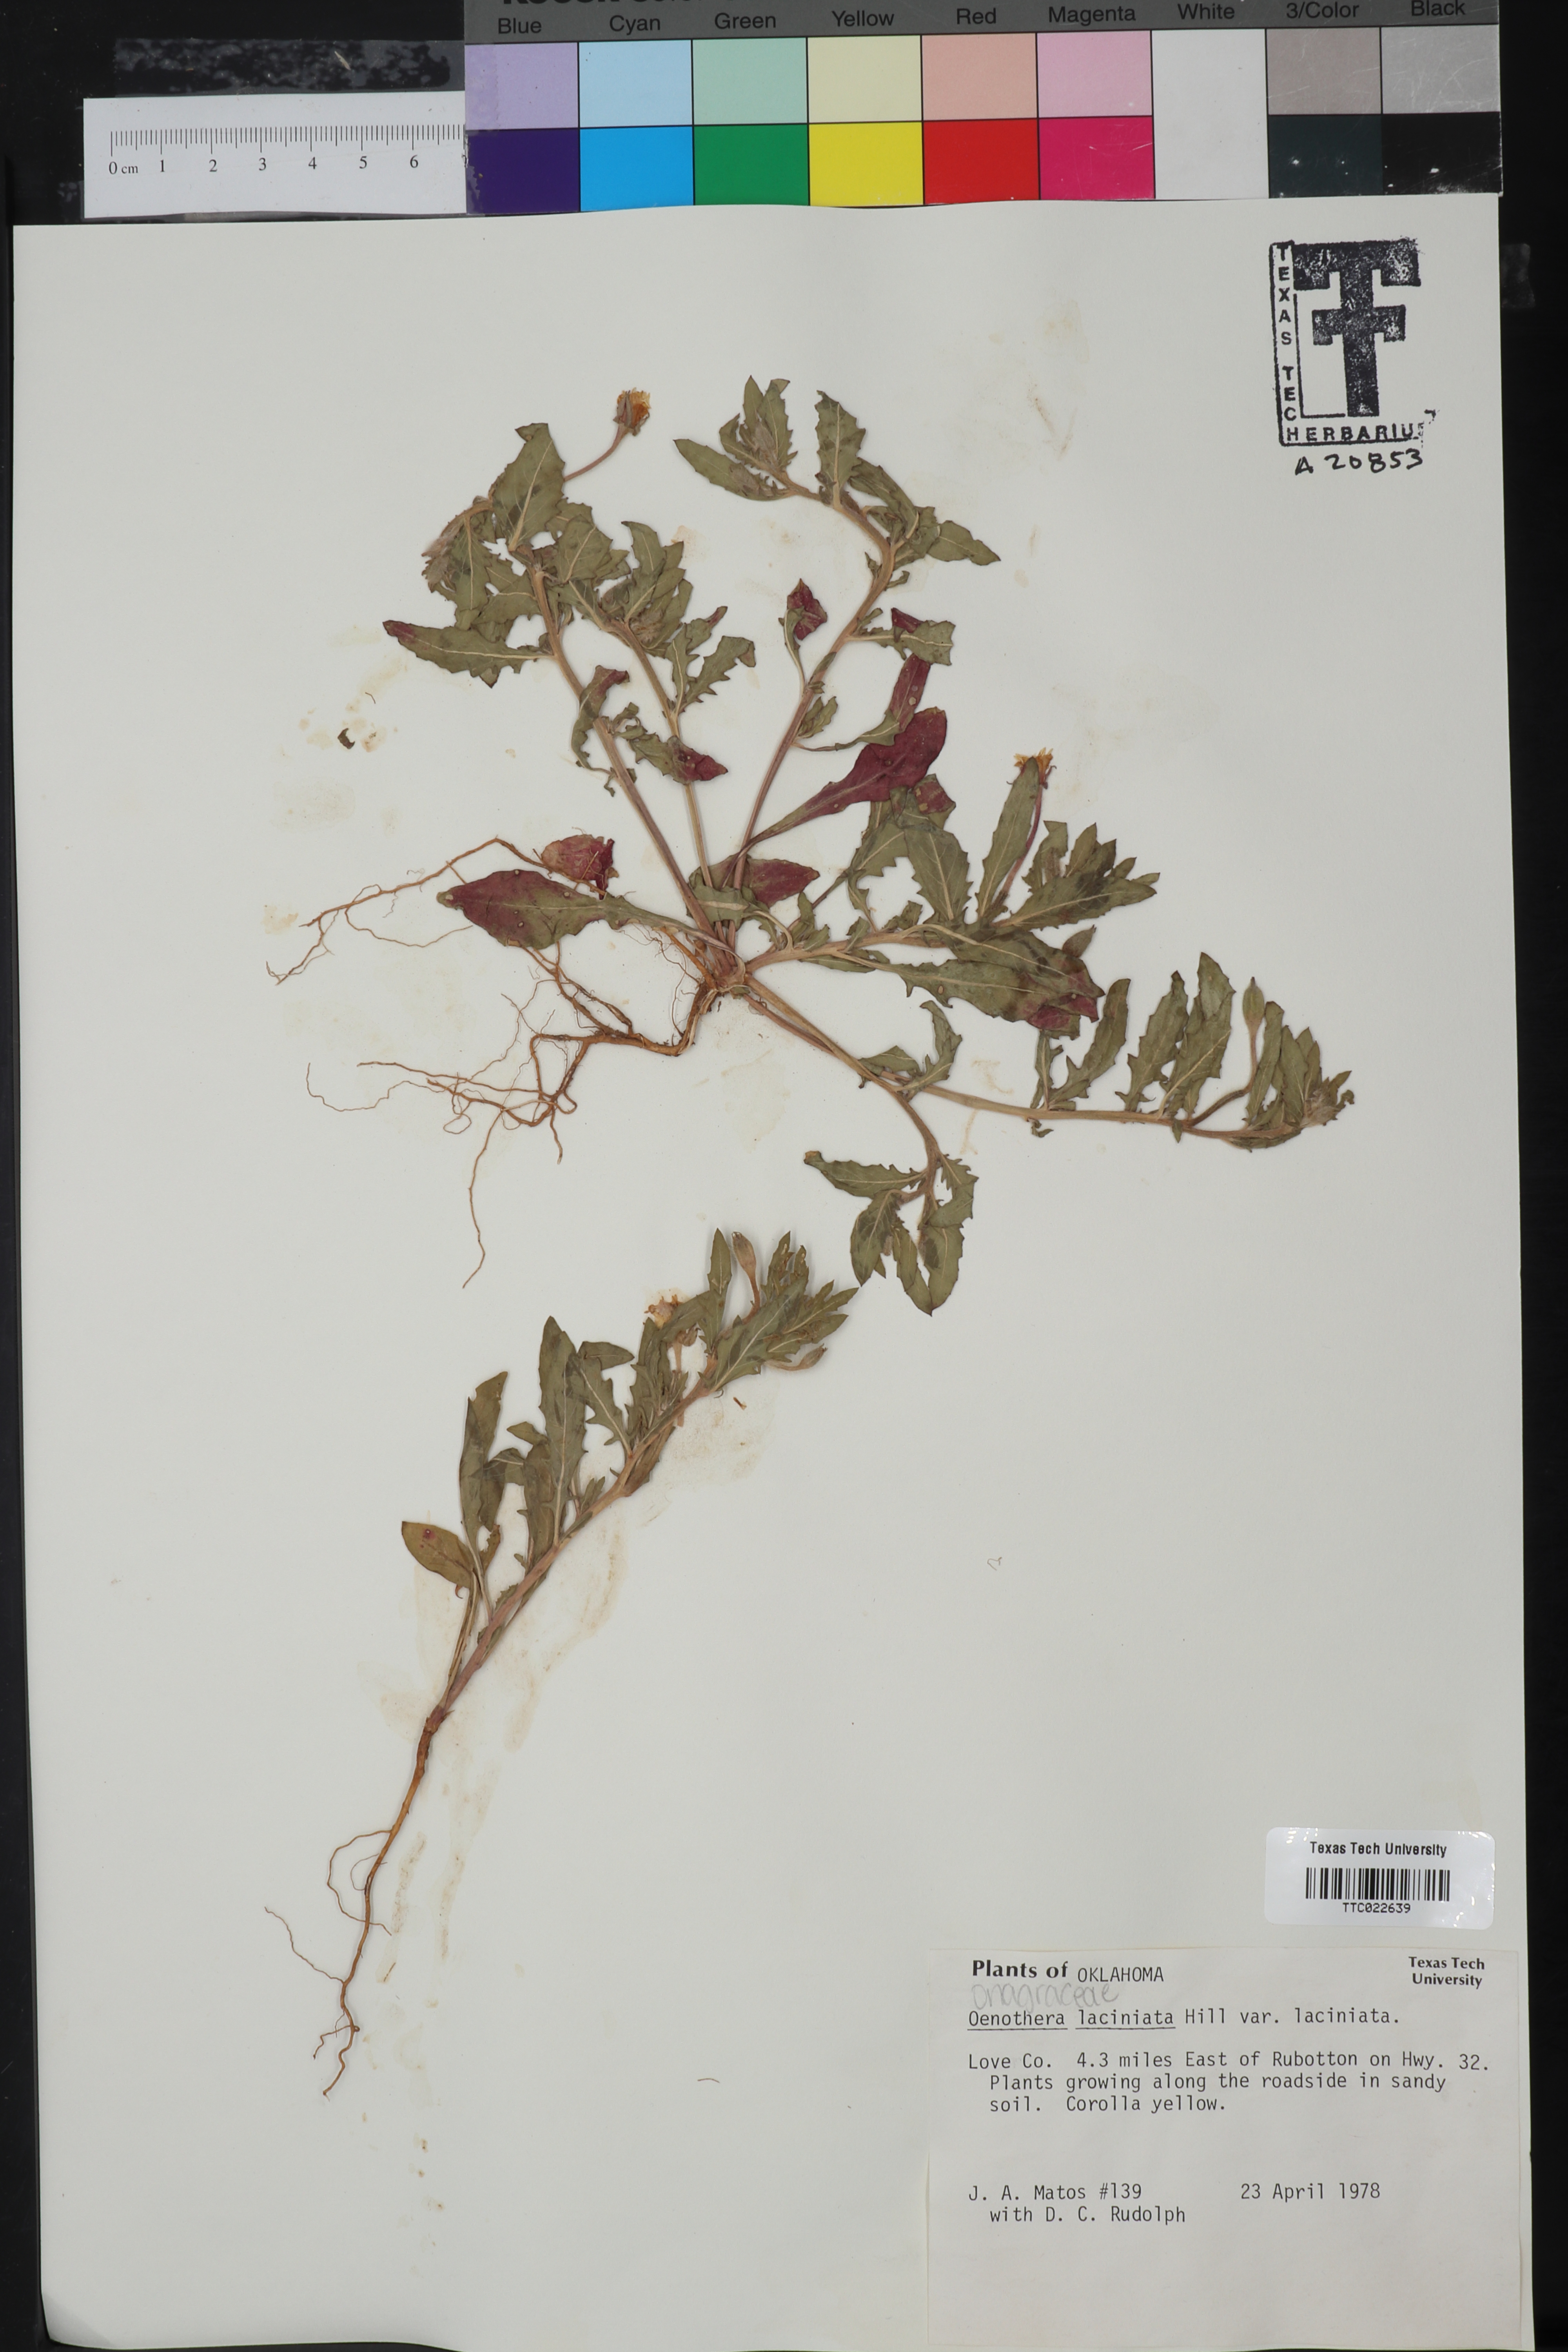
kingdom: Plantae
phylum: Tracheophyta
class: Magnoliopsida
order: Myrtales
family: Onagraceae
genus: Oenothera
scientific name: Oenothera laciniata
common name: Cut-leaved evening-primrose
